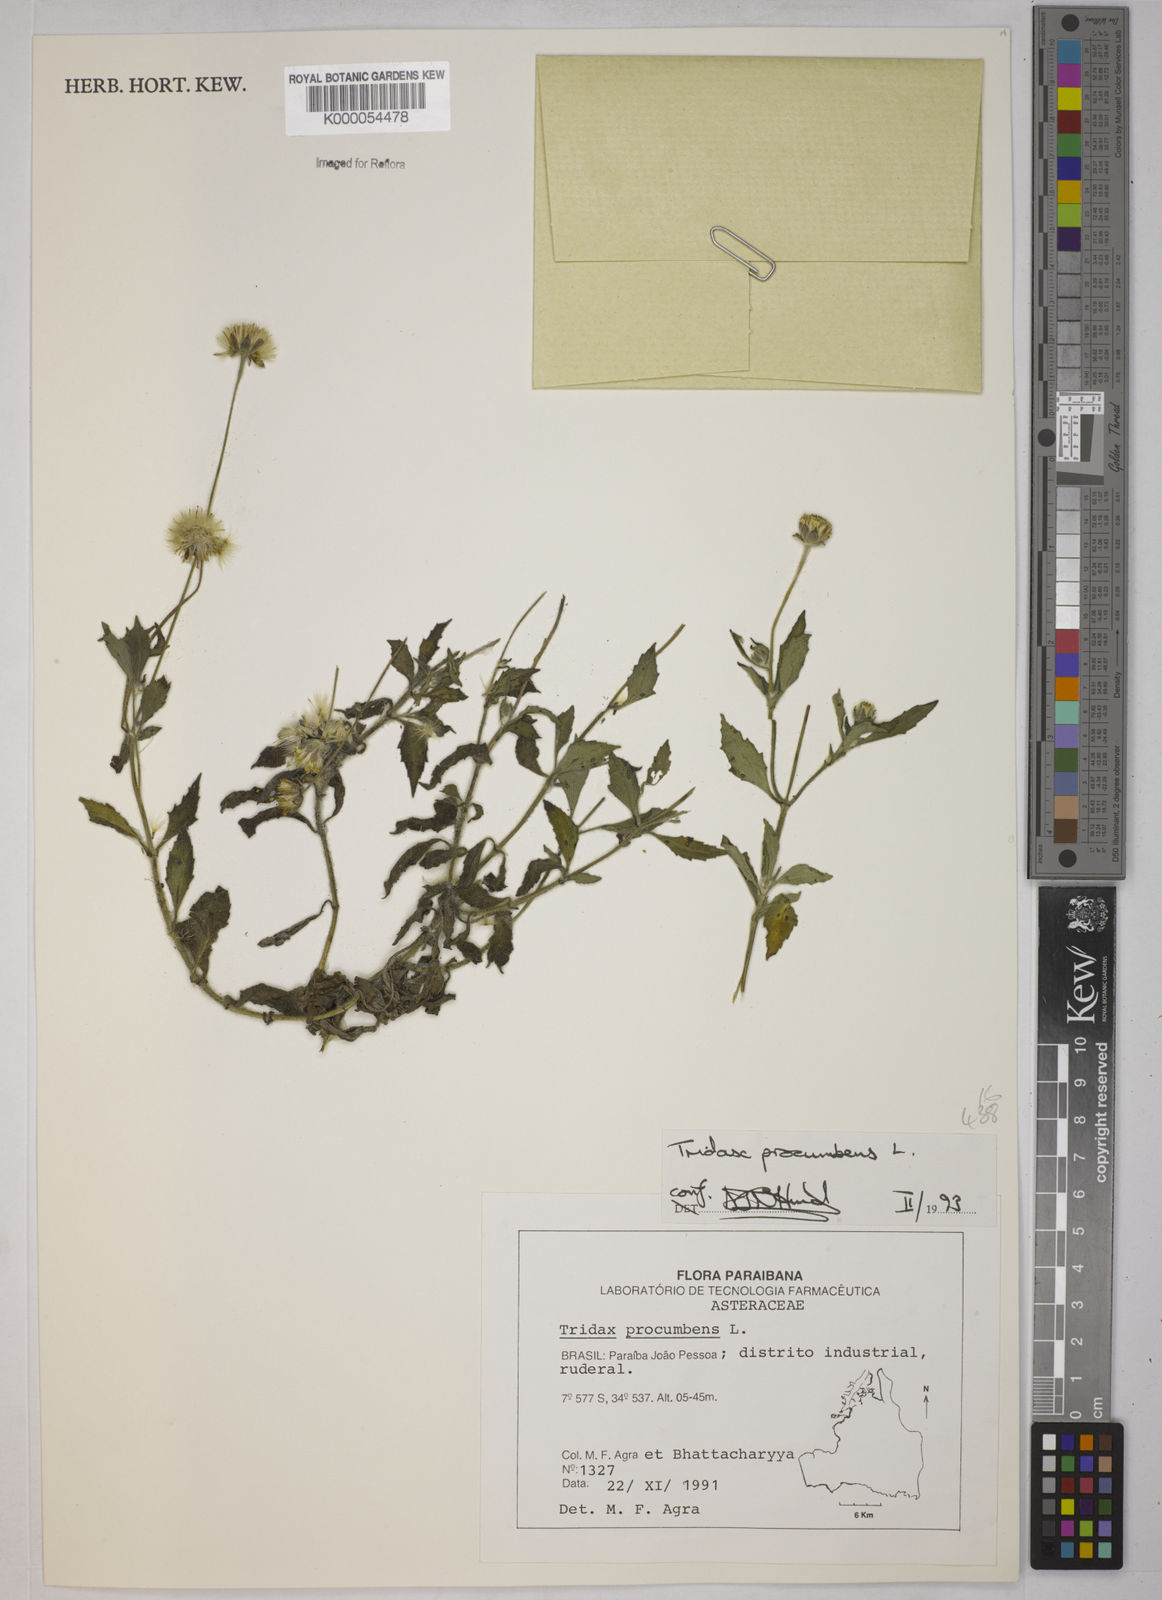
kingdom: Plantae
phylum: Tracheophyta
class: Magnoliopsida
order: Asterales
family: Asteraceae
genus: Tridax
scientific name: Tridax procumbens
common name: Coatbuttons
